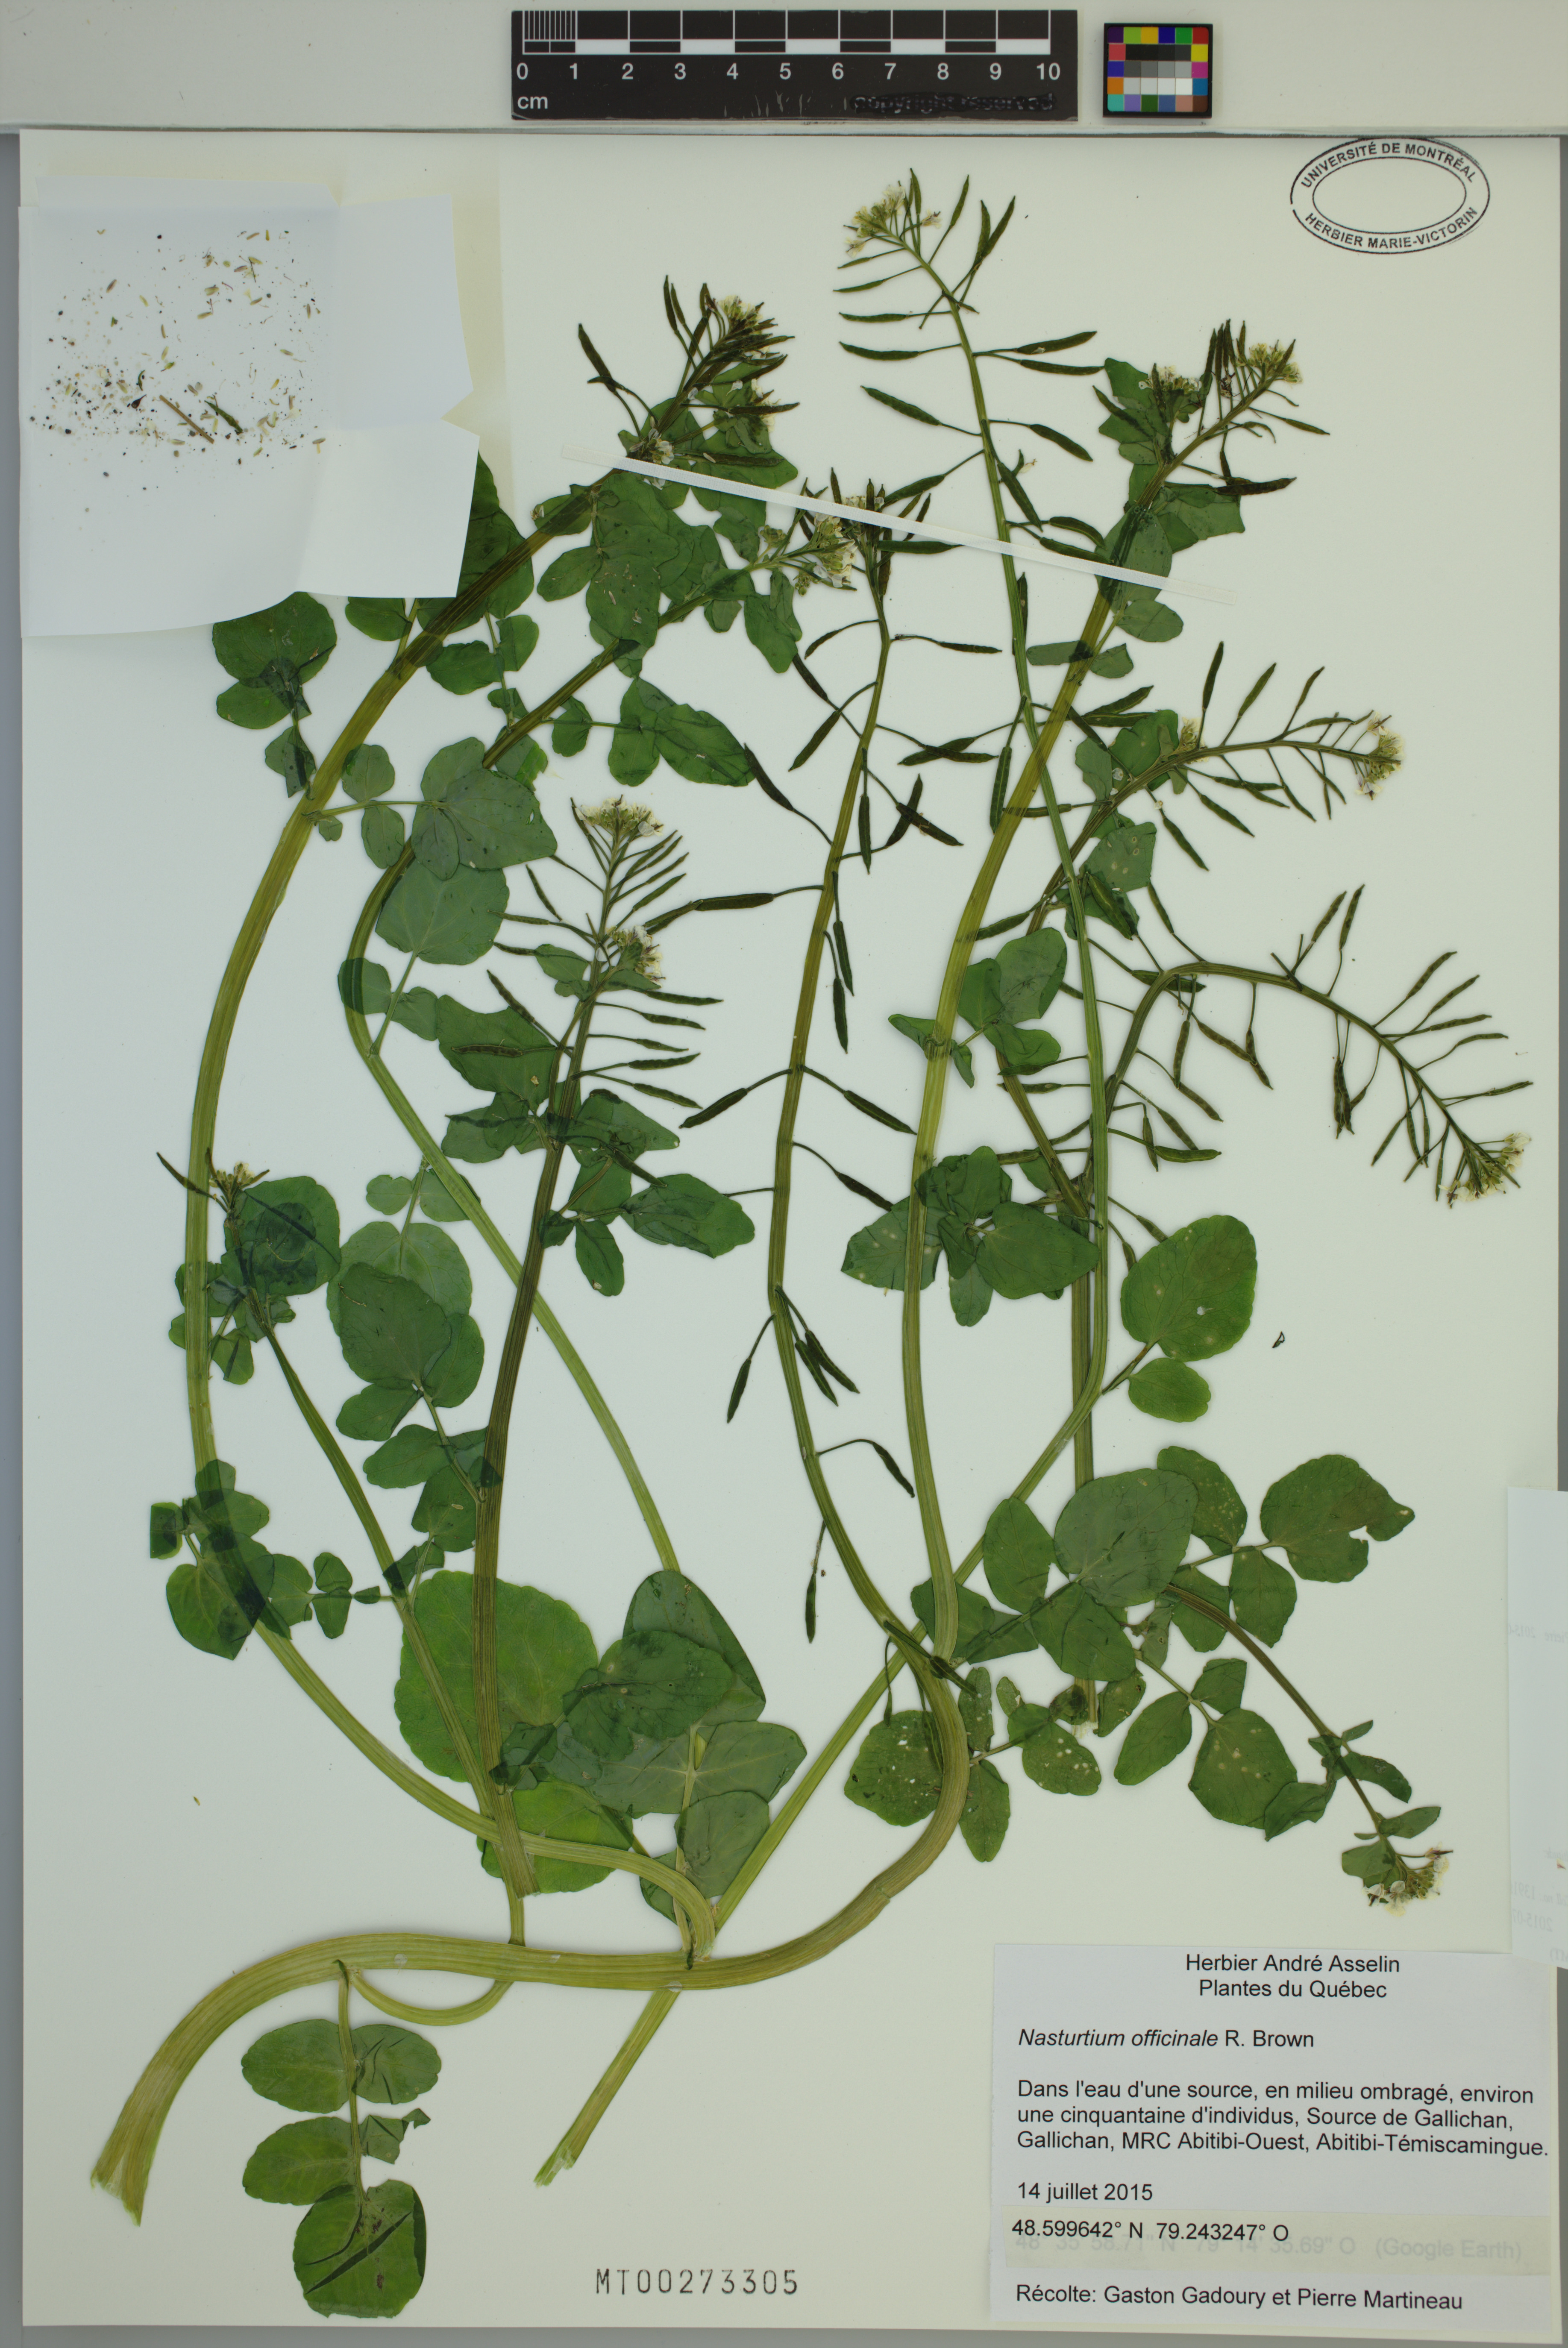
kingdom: Plantae
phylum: Tracheophyta
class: Magnoliopsida
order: Brassicales
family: Brassicaceae
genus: Nasturtium
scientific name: Nasturtium officinale
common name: Watercress
